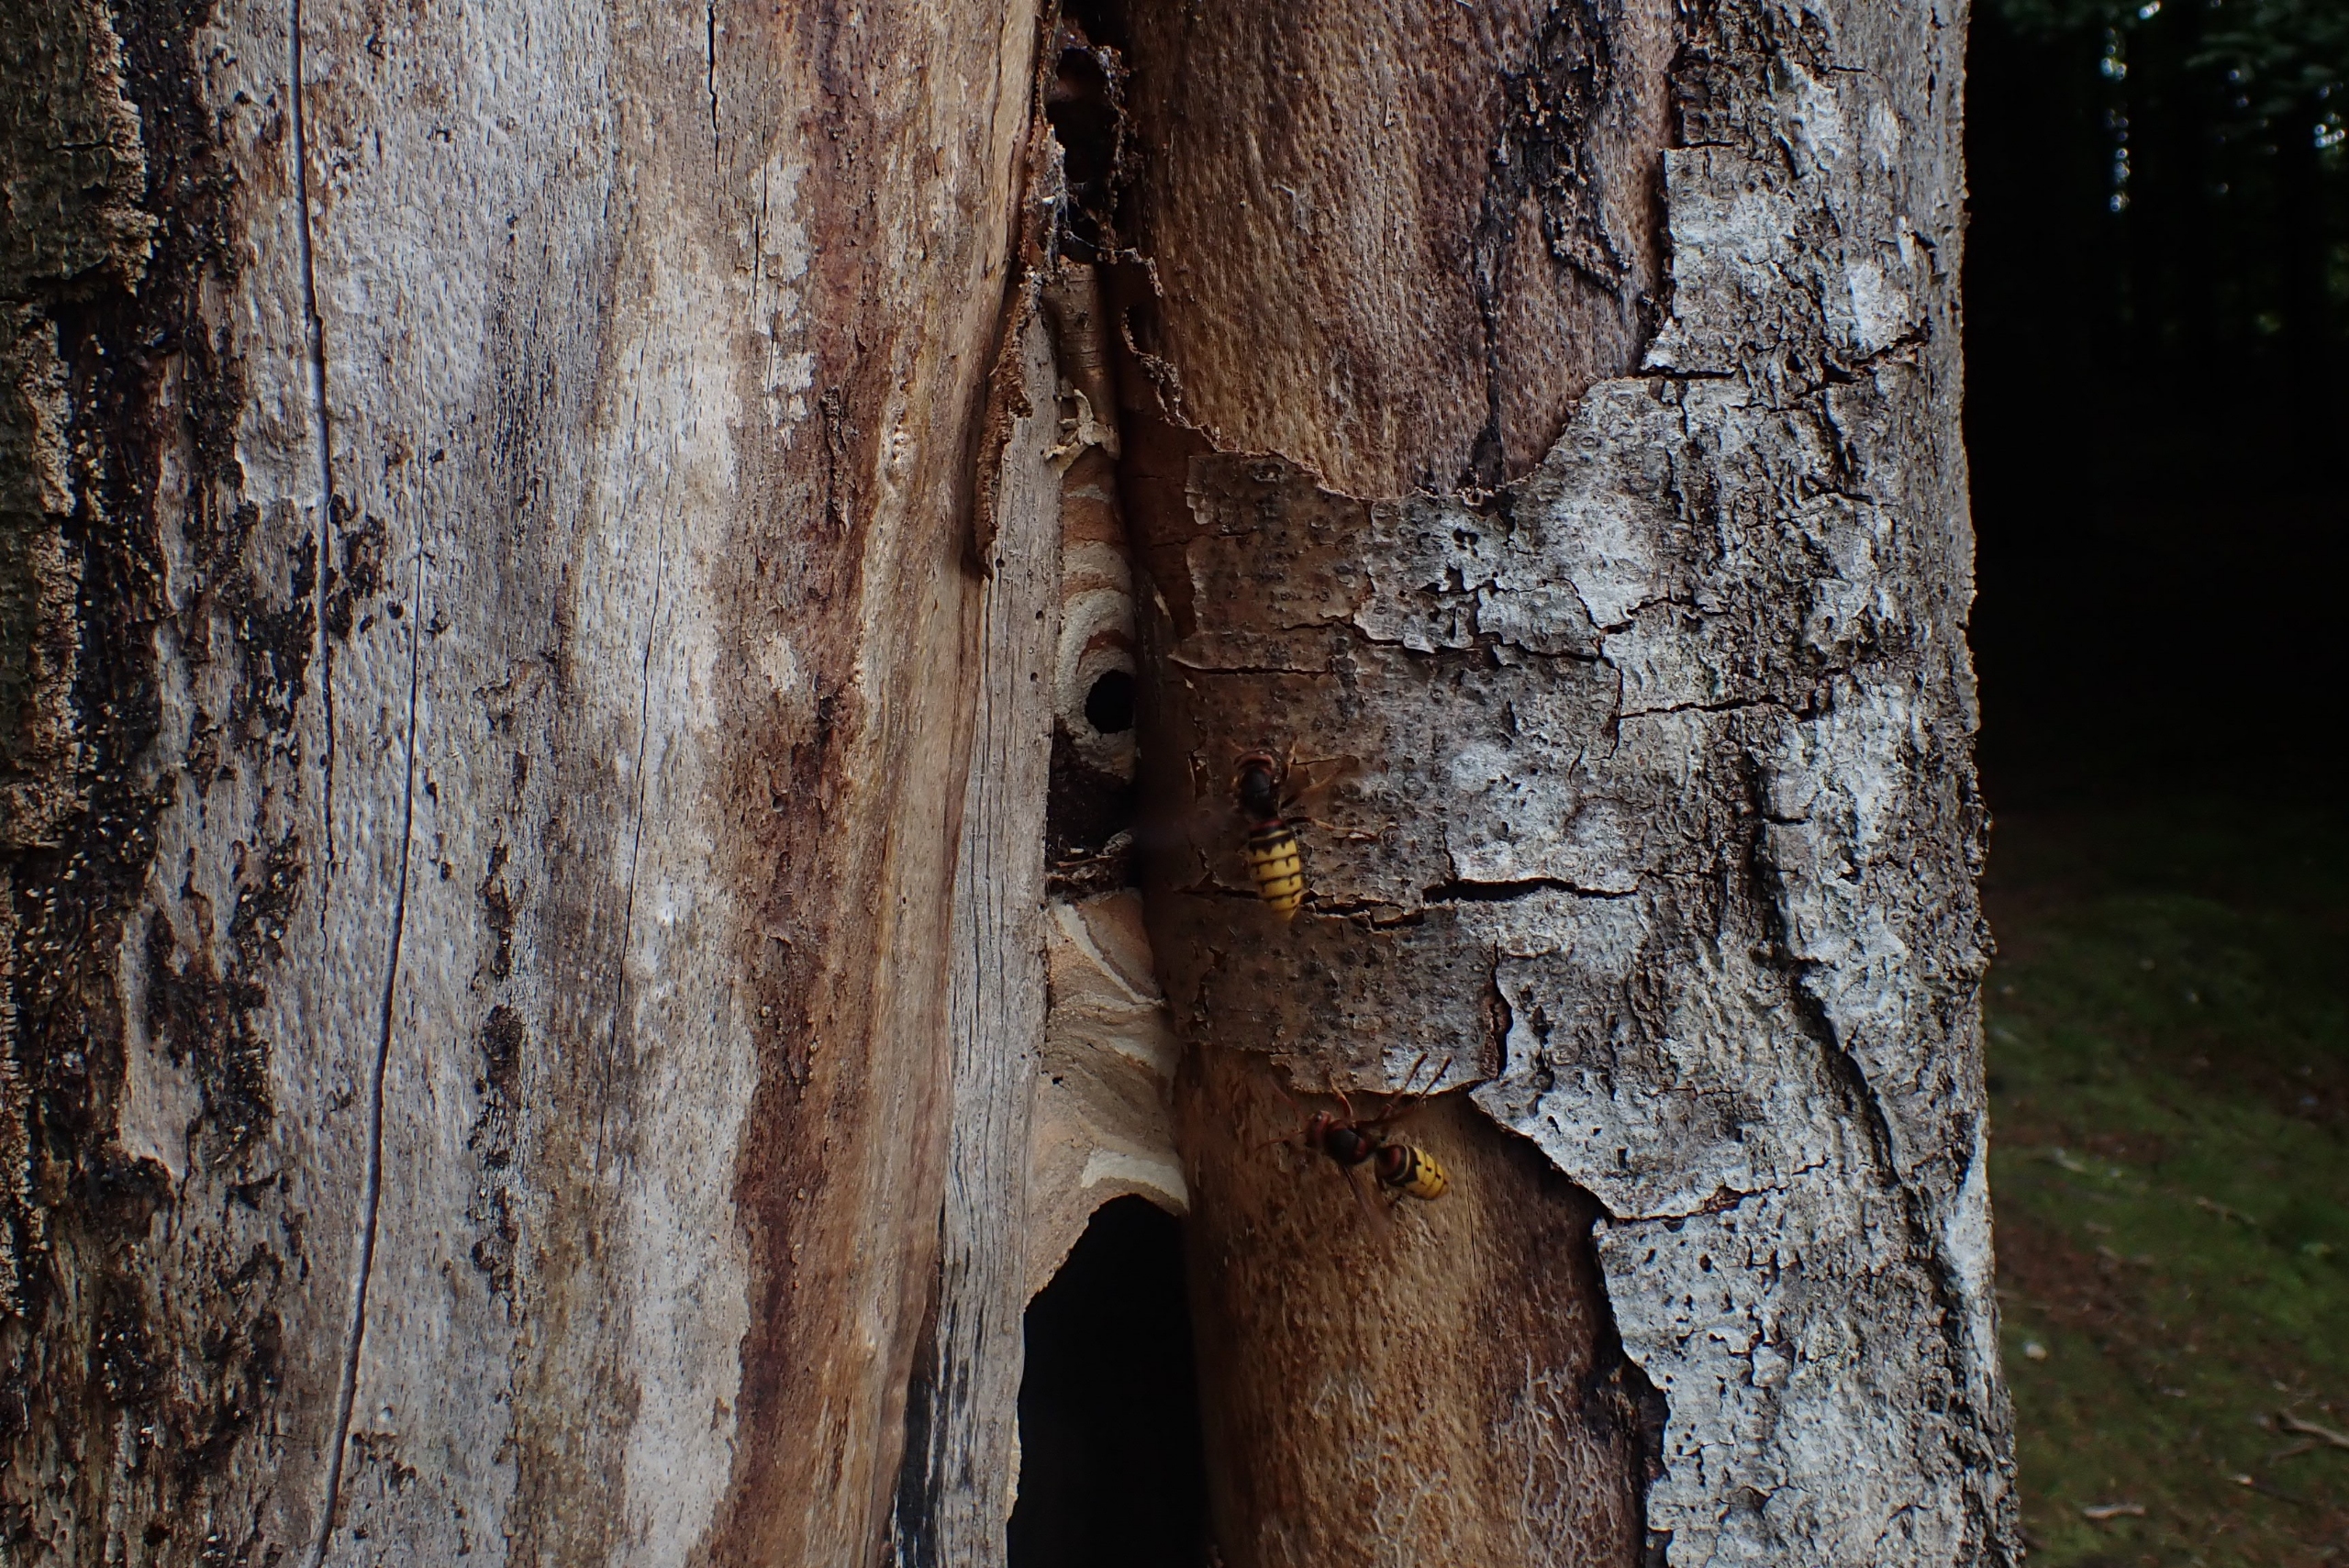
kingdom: Animalia
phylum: Arthropoda
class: Insecta
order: Hymenoptera
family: Vespidae
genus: Vespa
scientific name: Vespa crabro
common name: Stor gedehams
